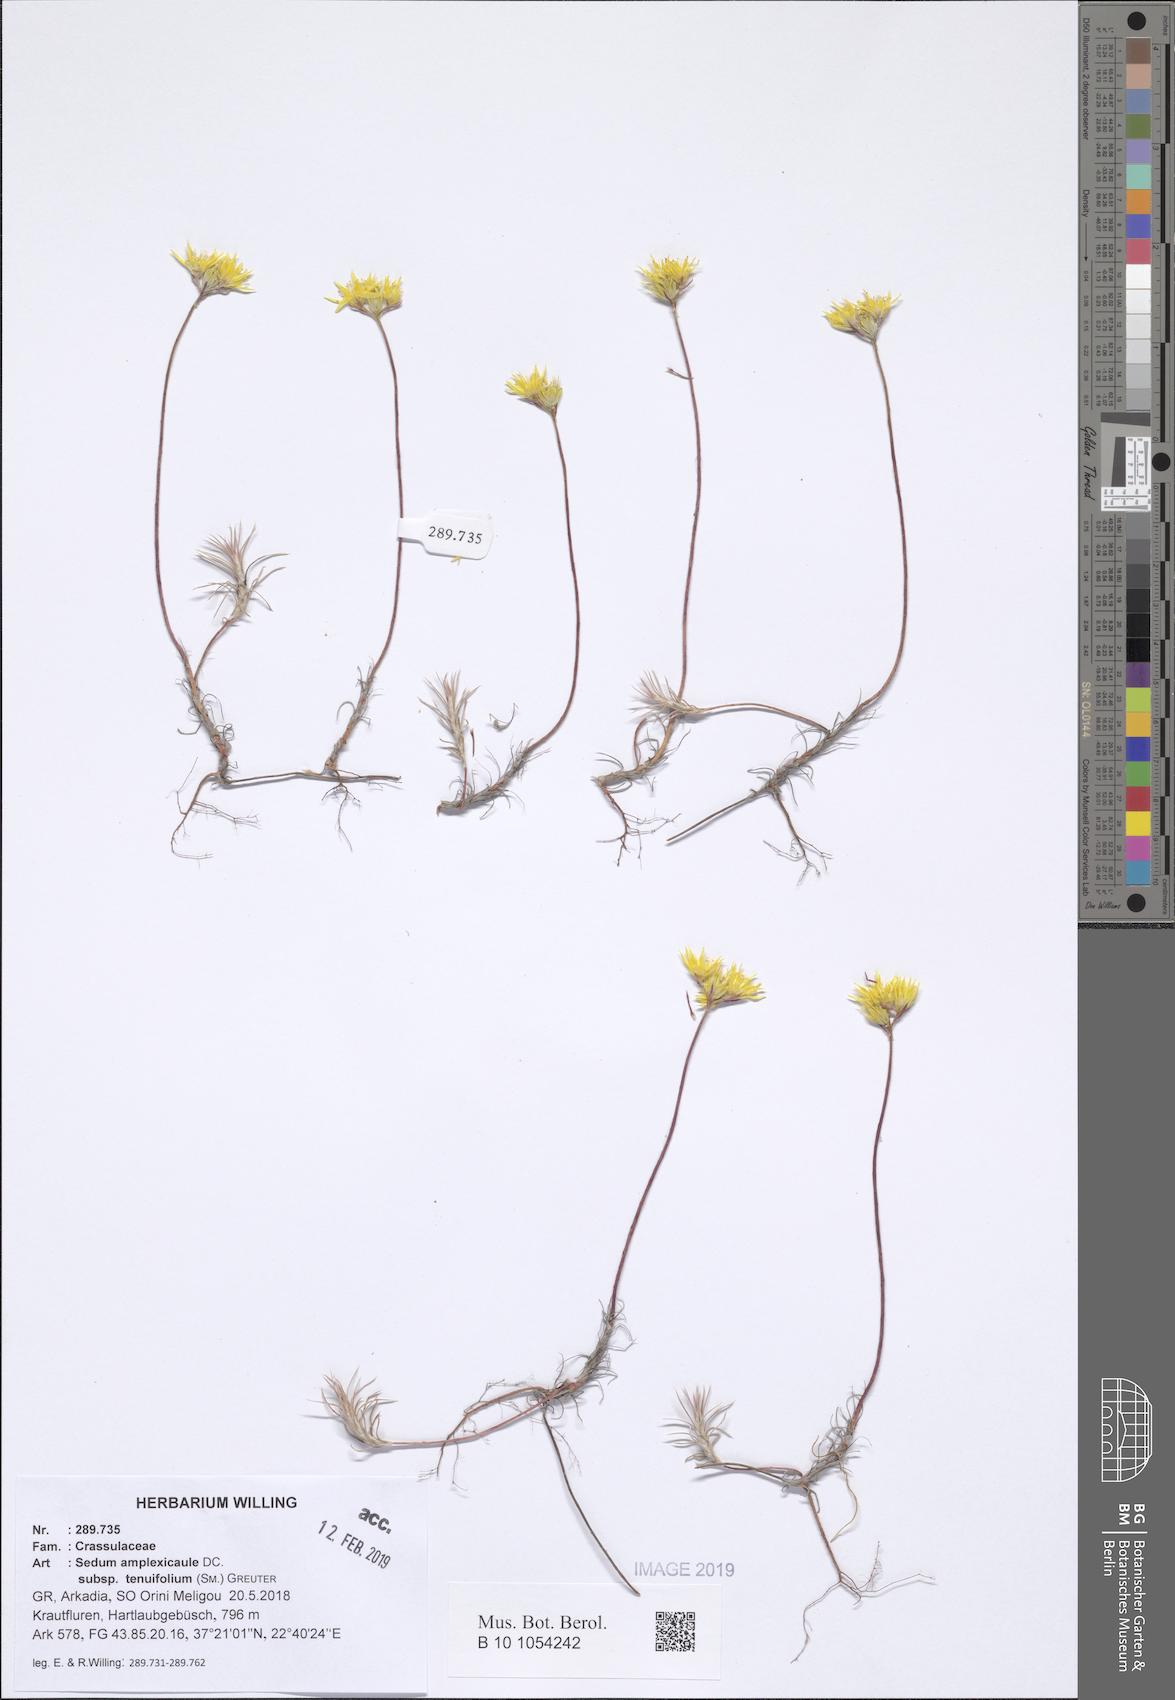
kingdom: Plantae
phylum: Tracheophyta
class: Magnoliopsida
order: Saxifragales
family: Crassulaceae
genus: Petrosedum
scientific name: Petrosedum tenuifolium
